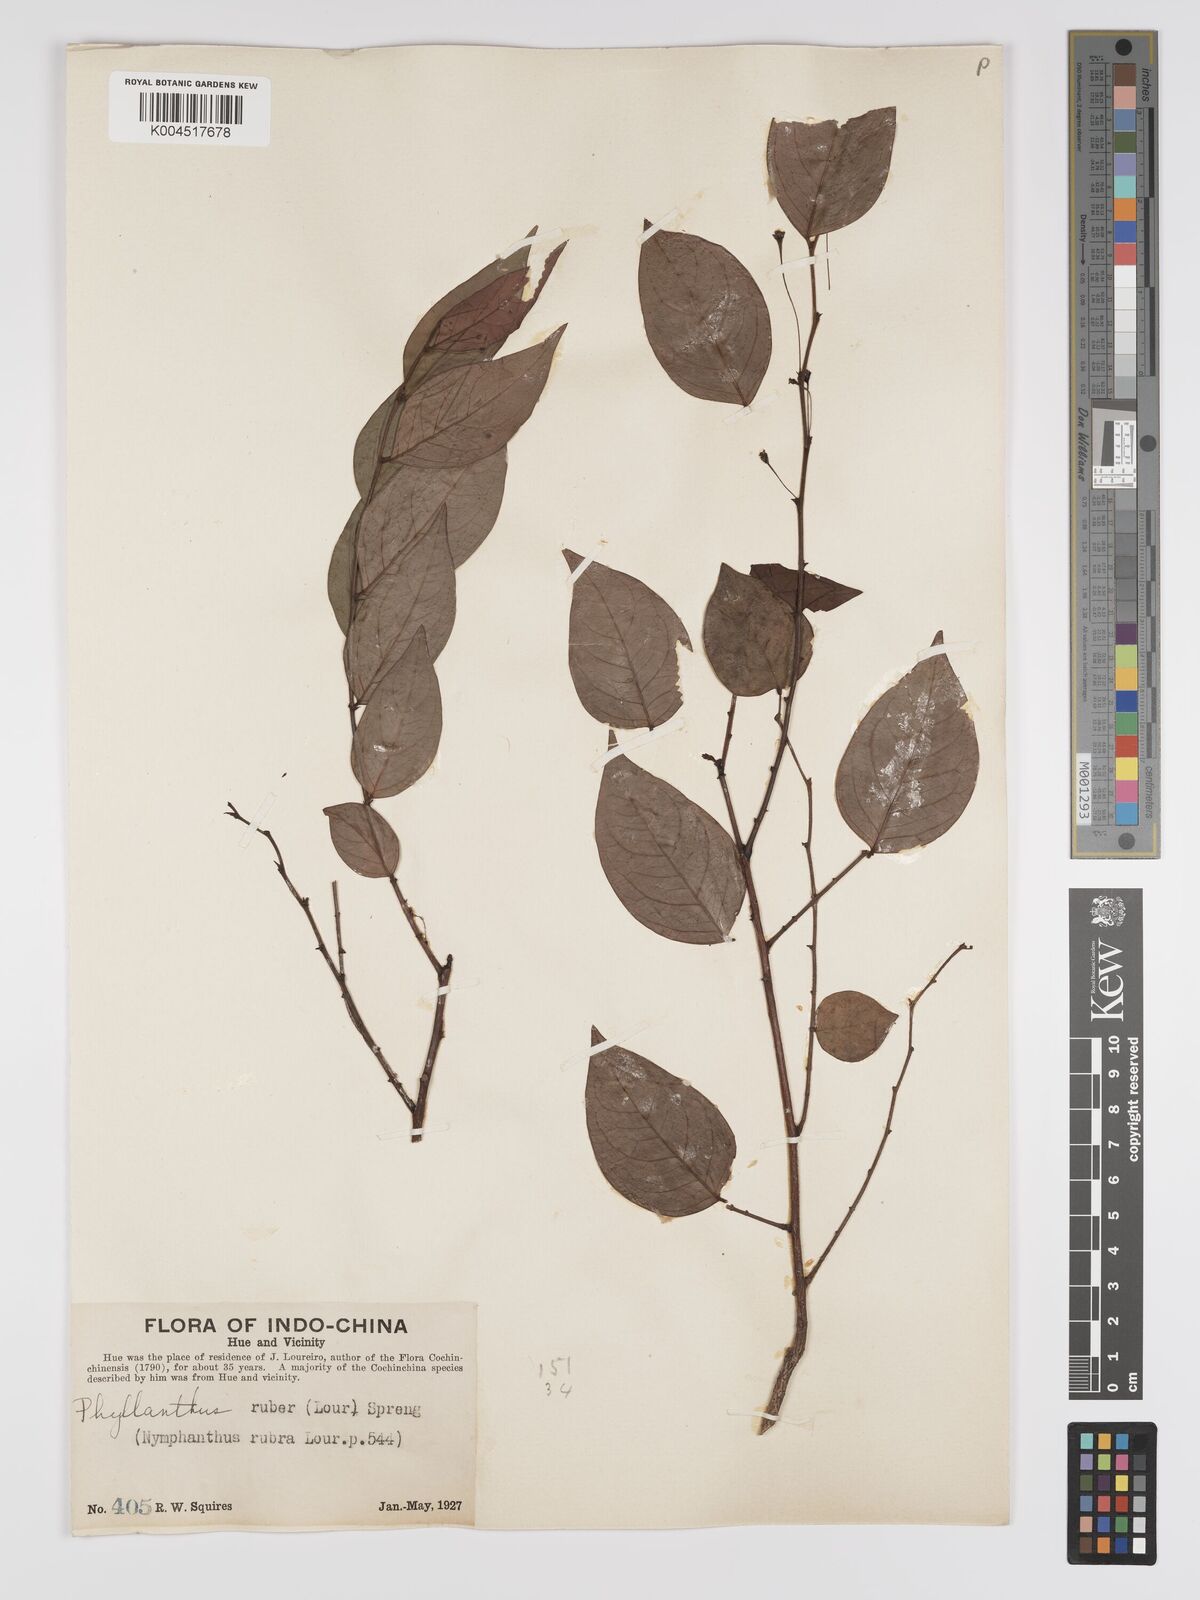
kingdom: Plantae
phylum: Tracheophyta
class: Magnoliopsida
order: Malpighiales
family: Phyllanthaceae
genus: Phyllanthus
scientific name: Phyllanthus
